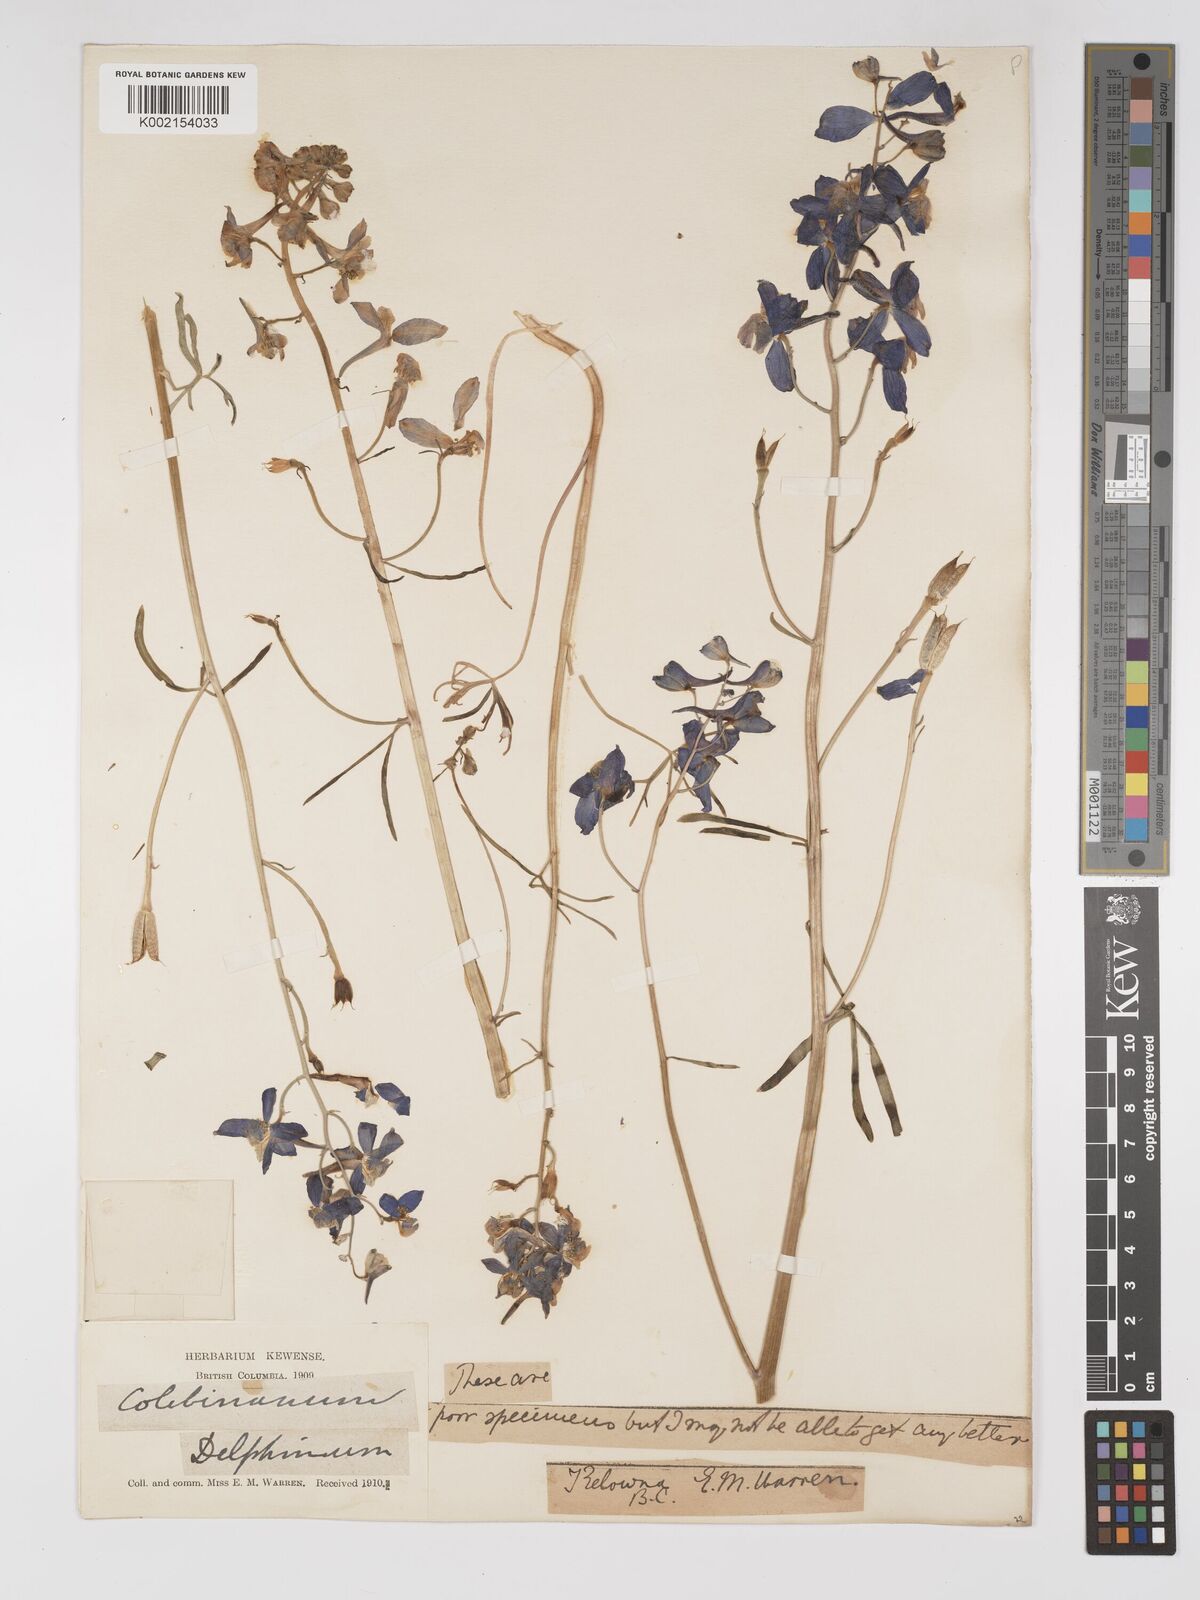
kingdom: Plantae
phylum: Tracheophyta
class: Magnoliopsida
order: Ranunculales
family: Ranunculaceae
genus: Delphinium
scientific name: Delphinium
